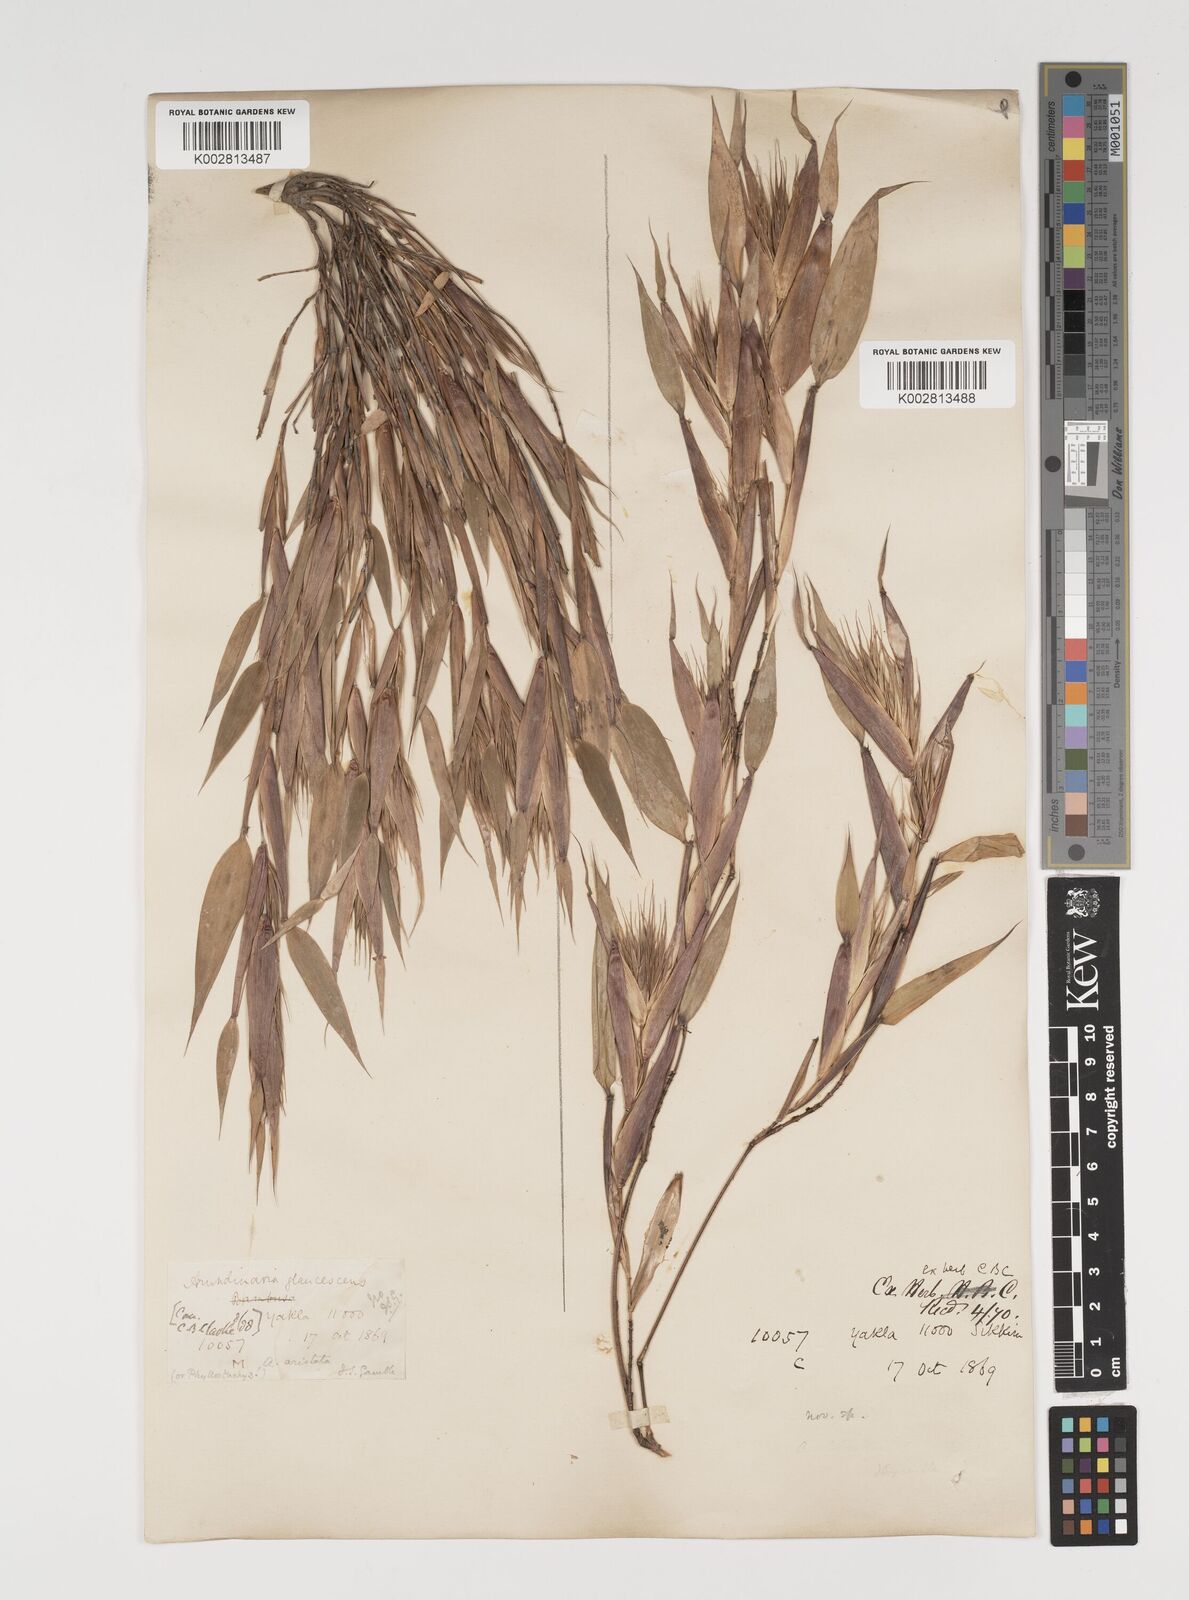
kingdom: Plantae
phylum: Tracheophyta
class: Liliopsida
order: Poales
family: Poaceae
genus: Thamnocalamus
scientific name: Thamnocalamus spathiflorus
